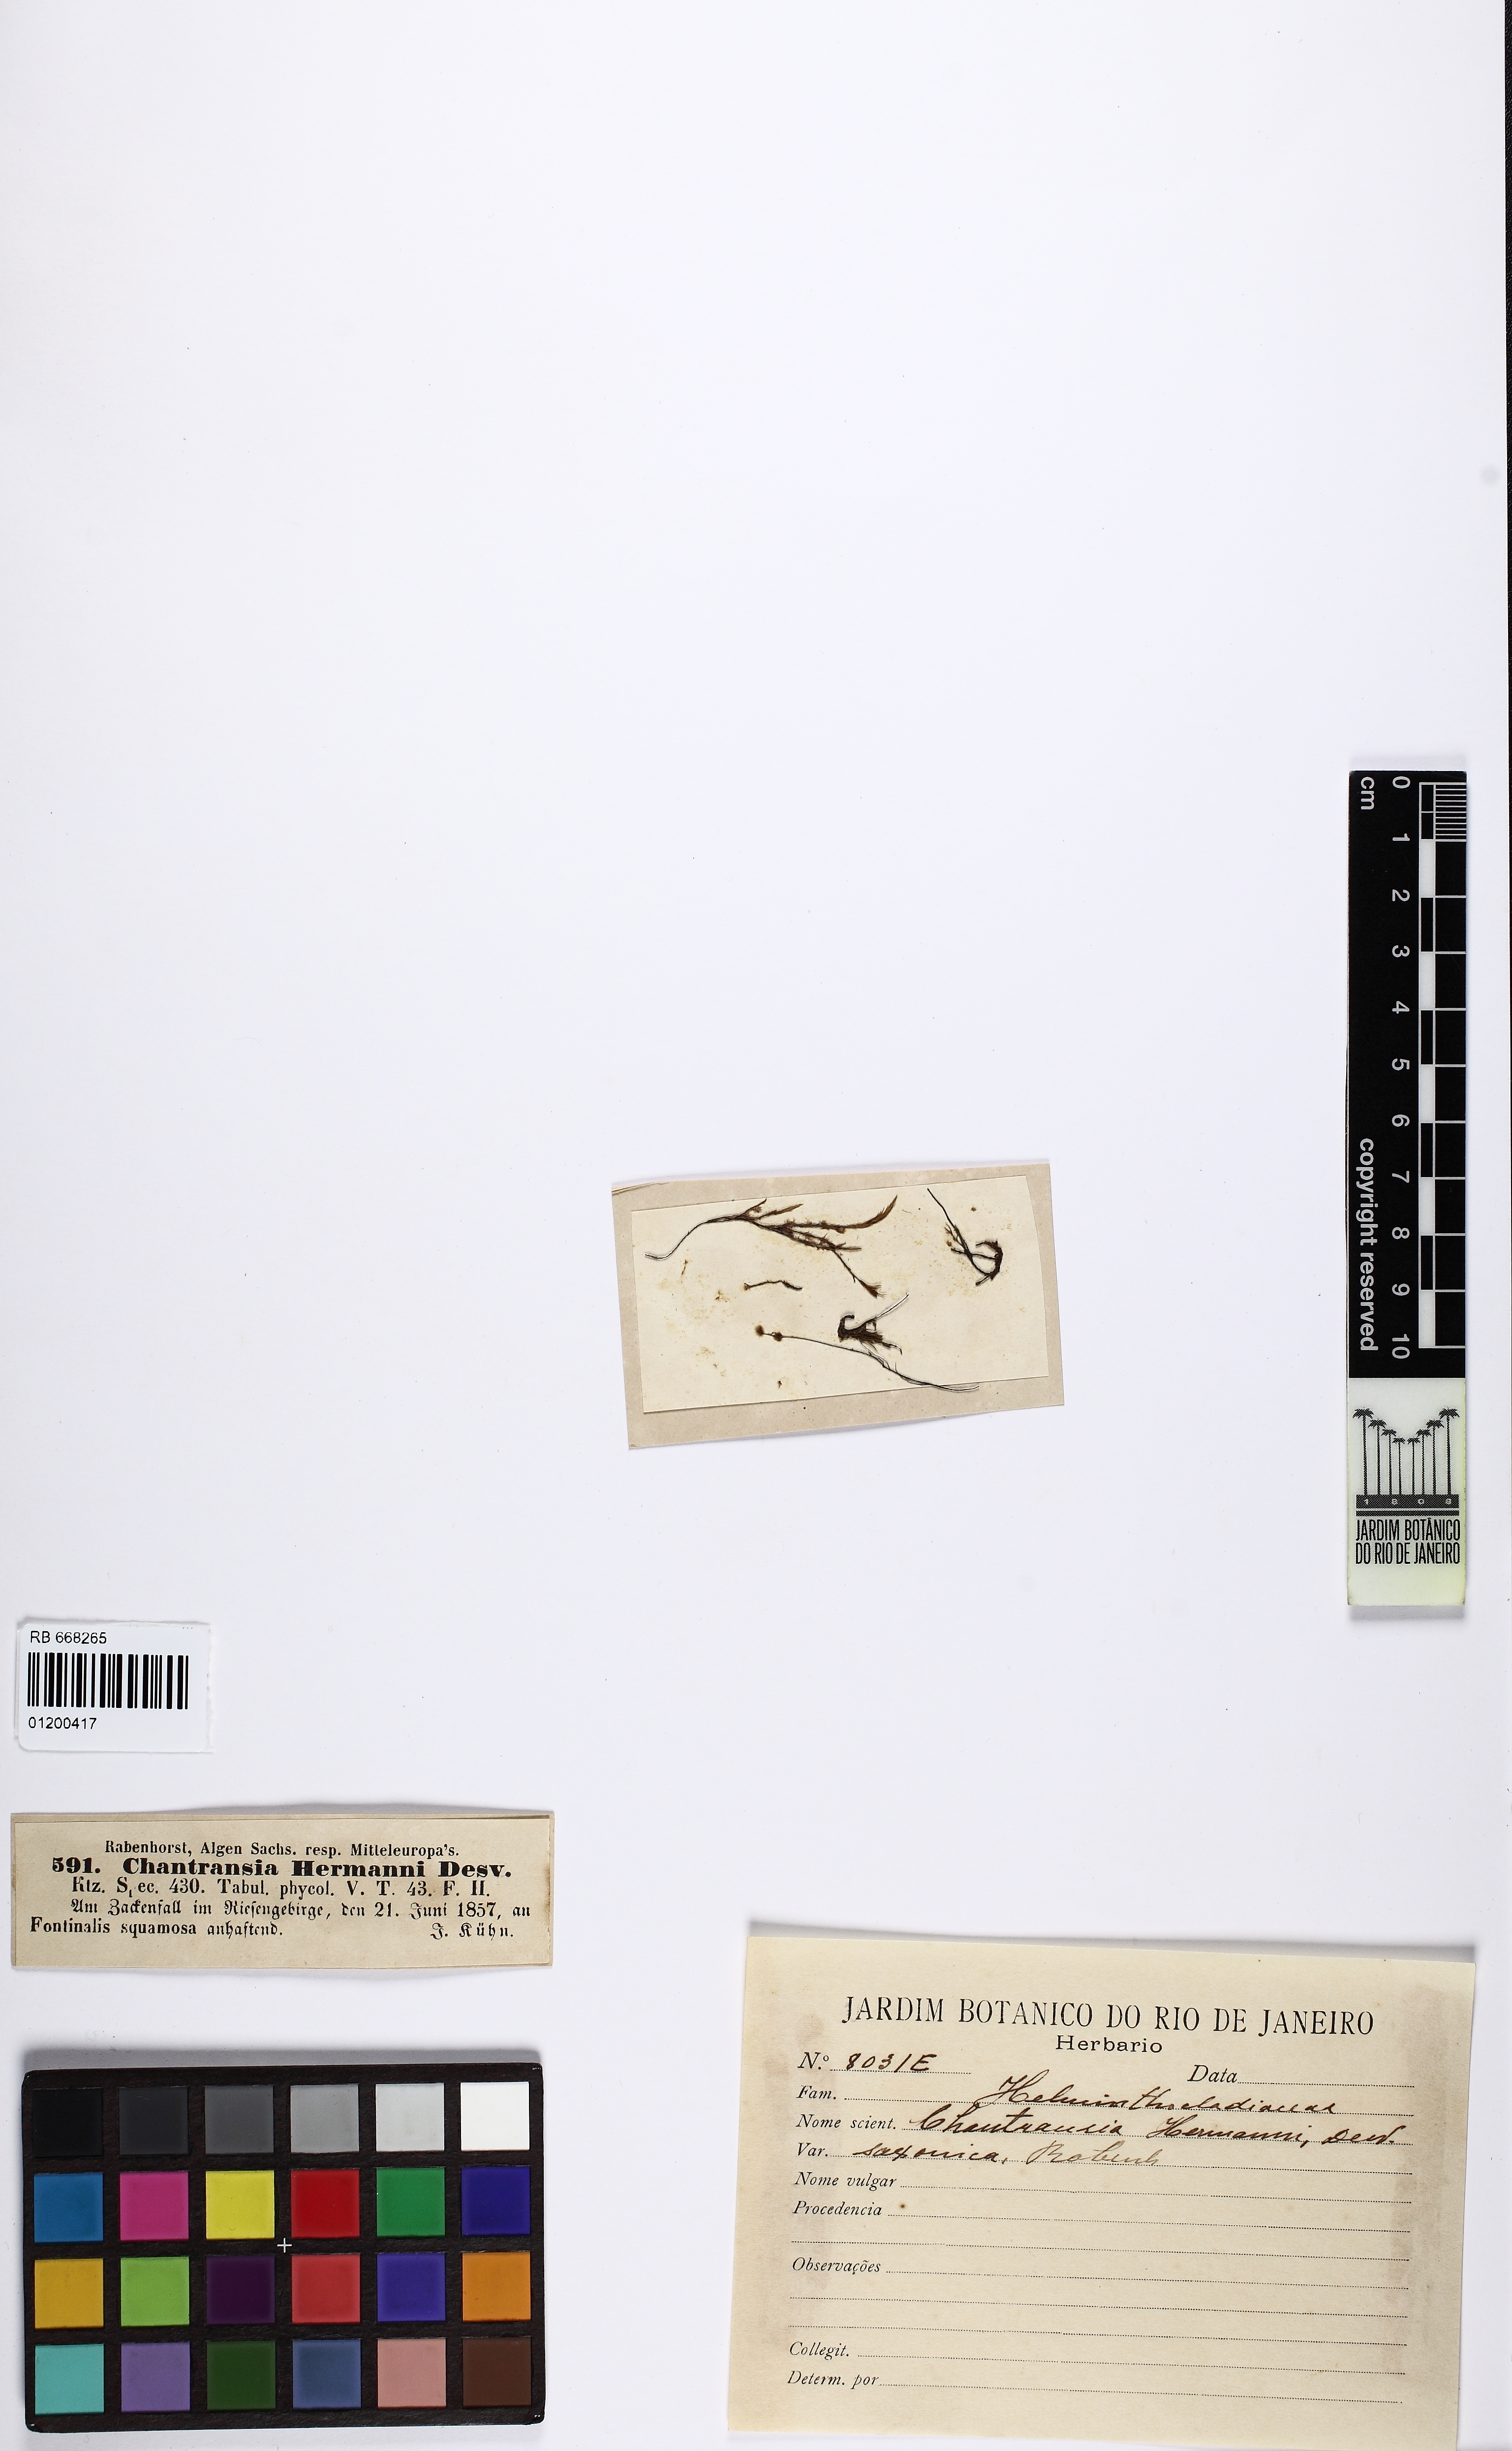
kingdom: Plantae
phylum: Rhodophyta
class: Florideophyceae
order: Acrochaetiales
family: Audouinellaceae
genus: Audouinella
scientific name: Audouinella hermannii
